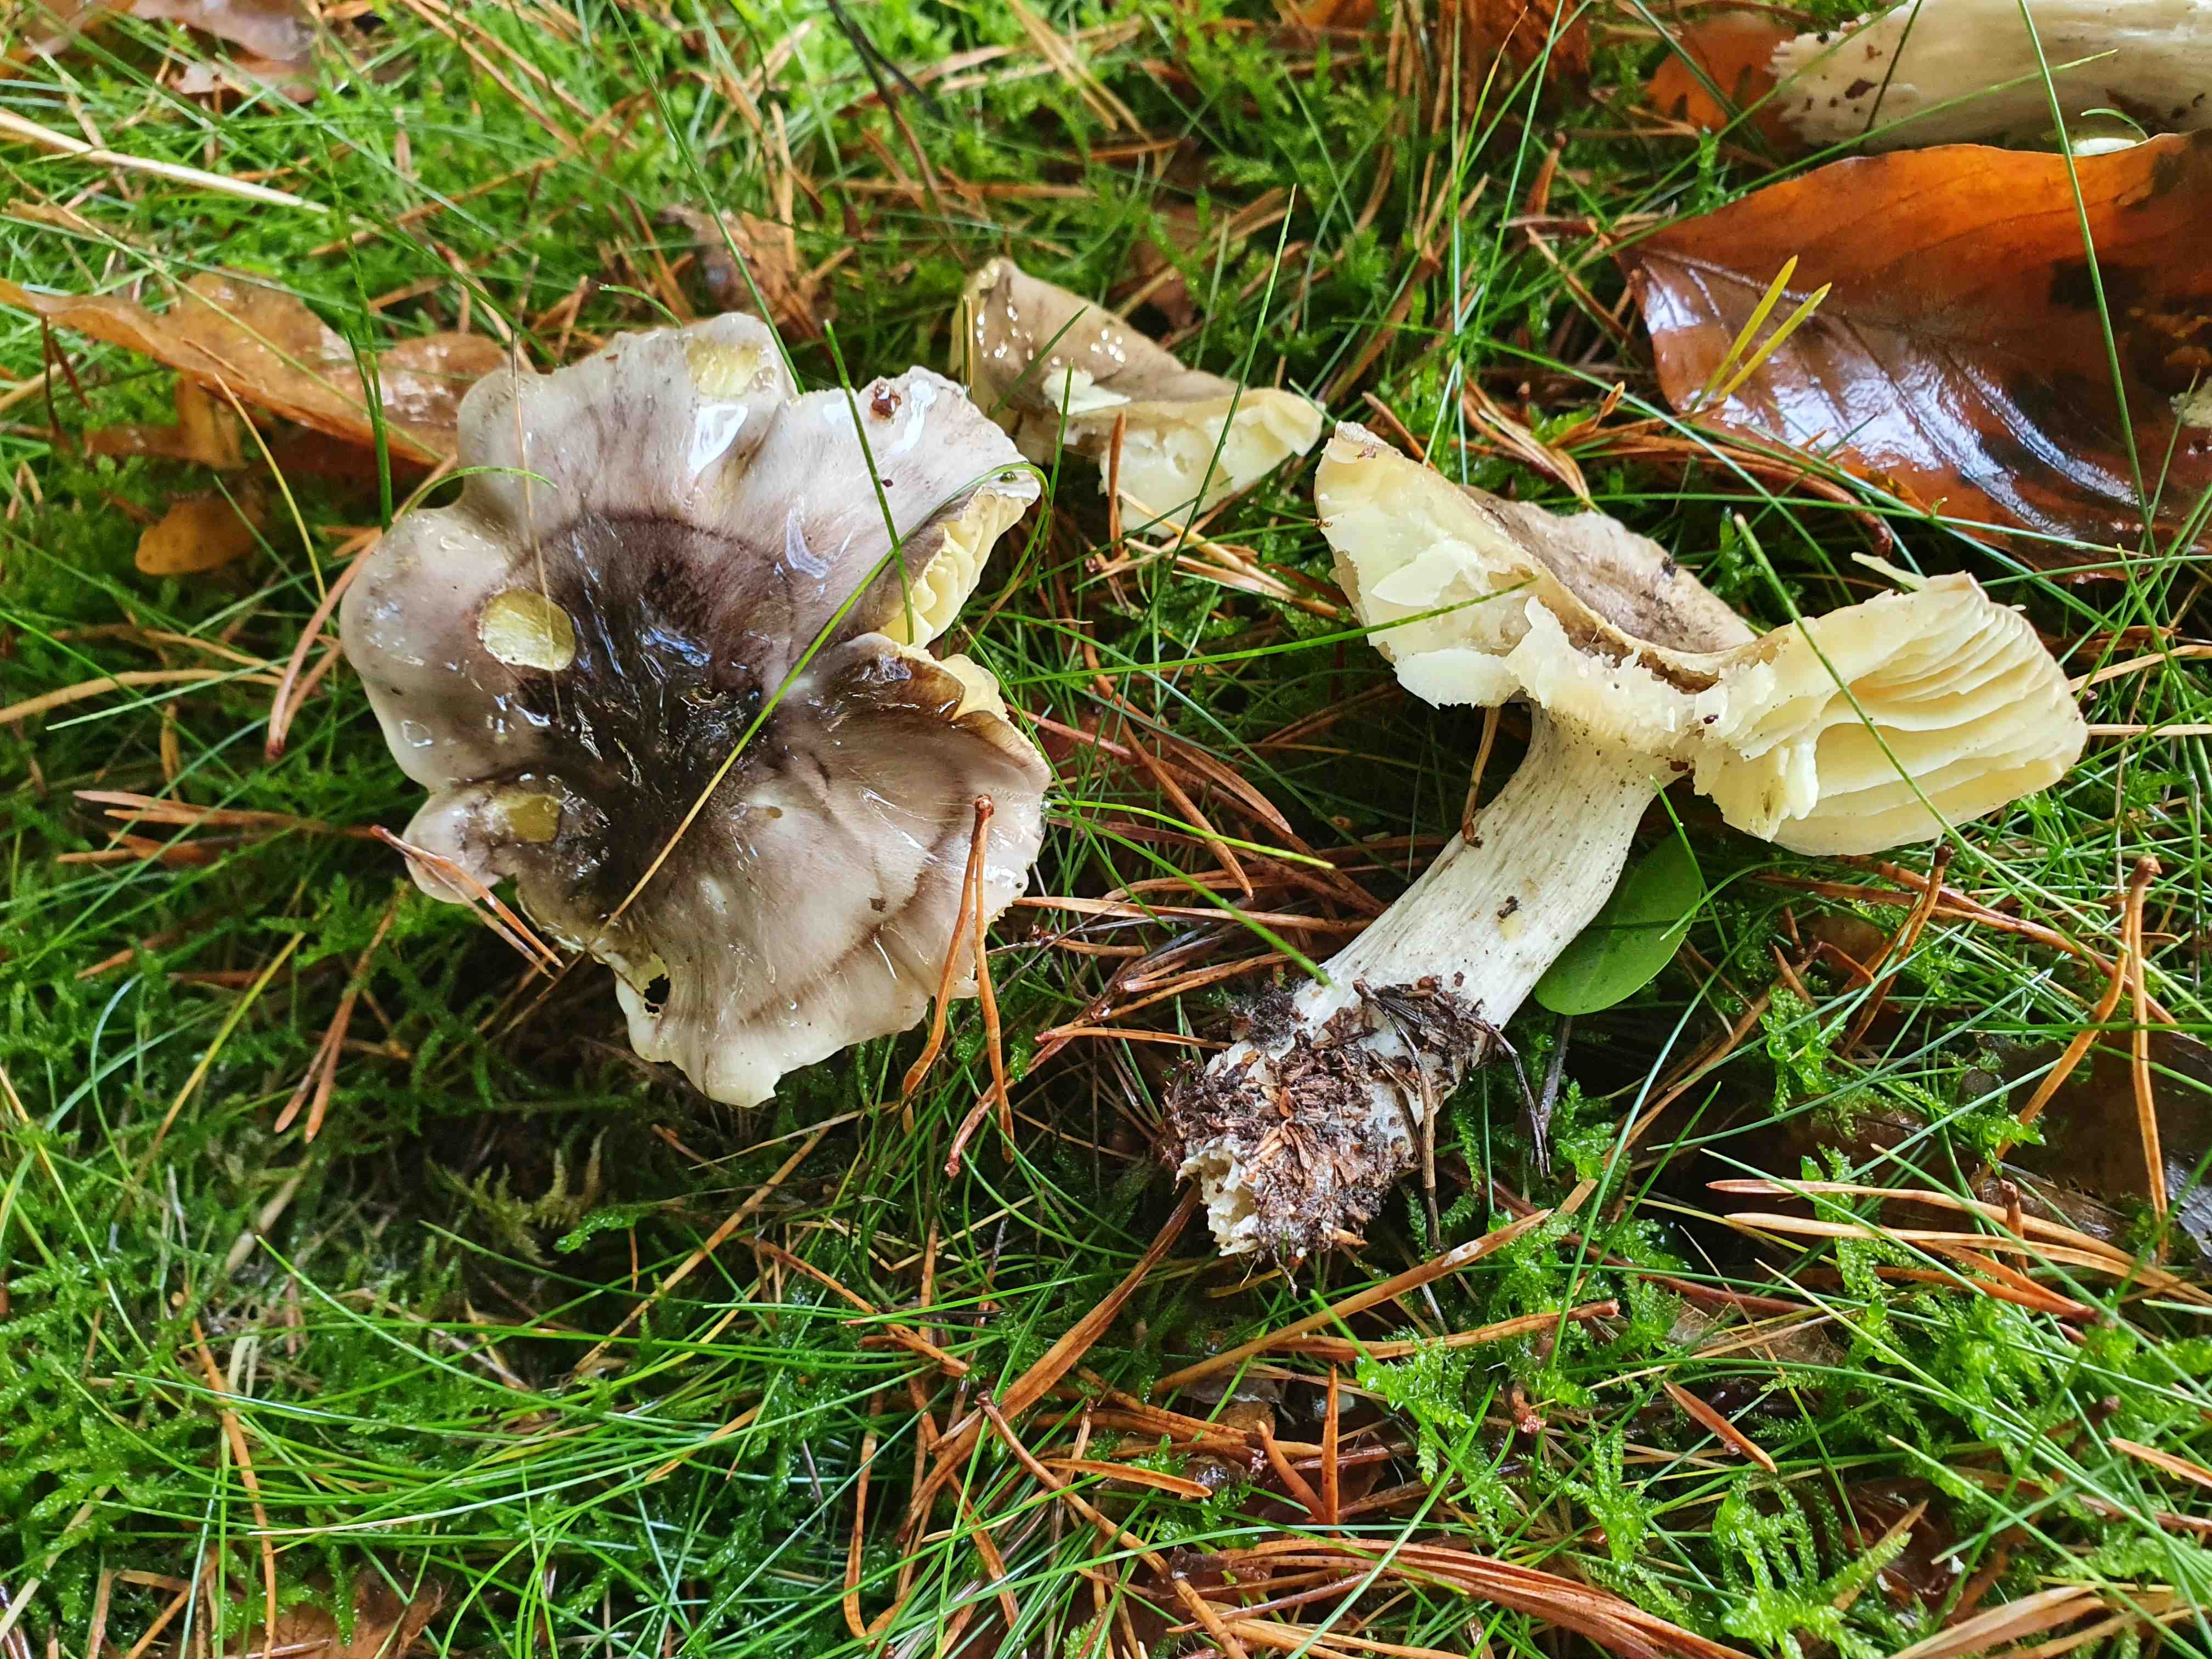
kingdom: Fungi
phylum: Basidiomycota
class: Agaricomycetes
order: Agaricales
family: Tricholomataceae
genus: Tricholoma
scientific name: Tricholoma portentosum
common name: grå ridderhat
